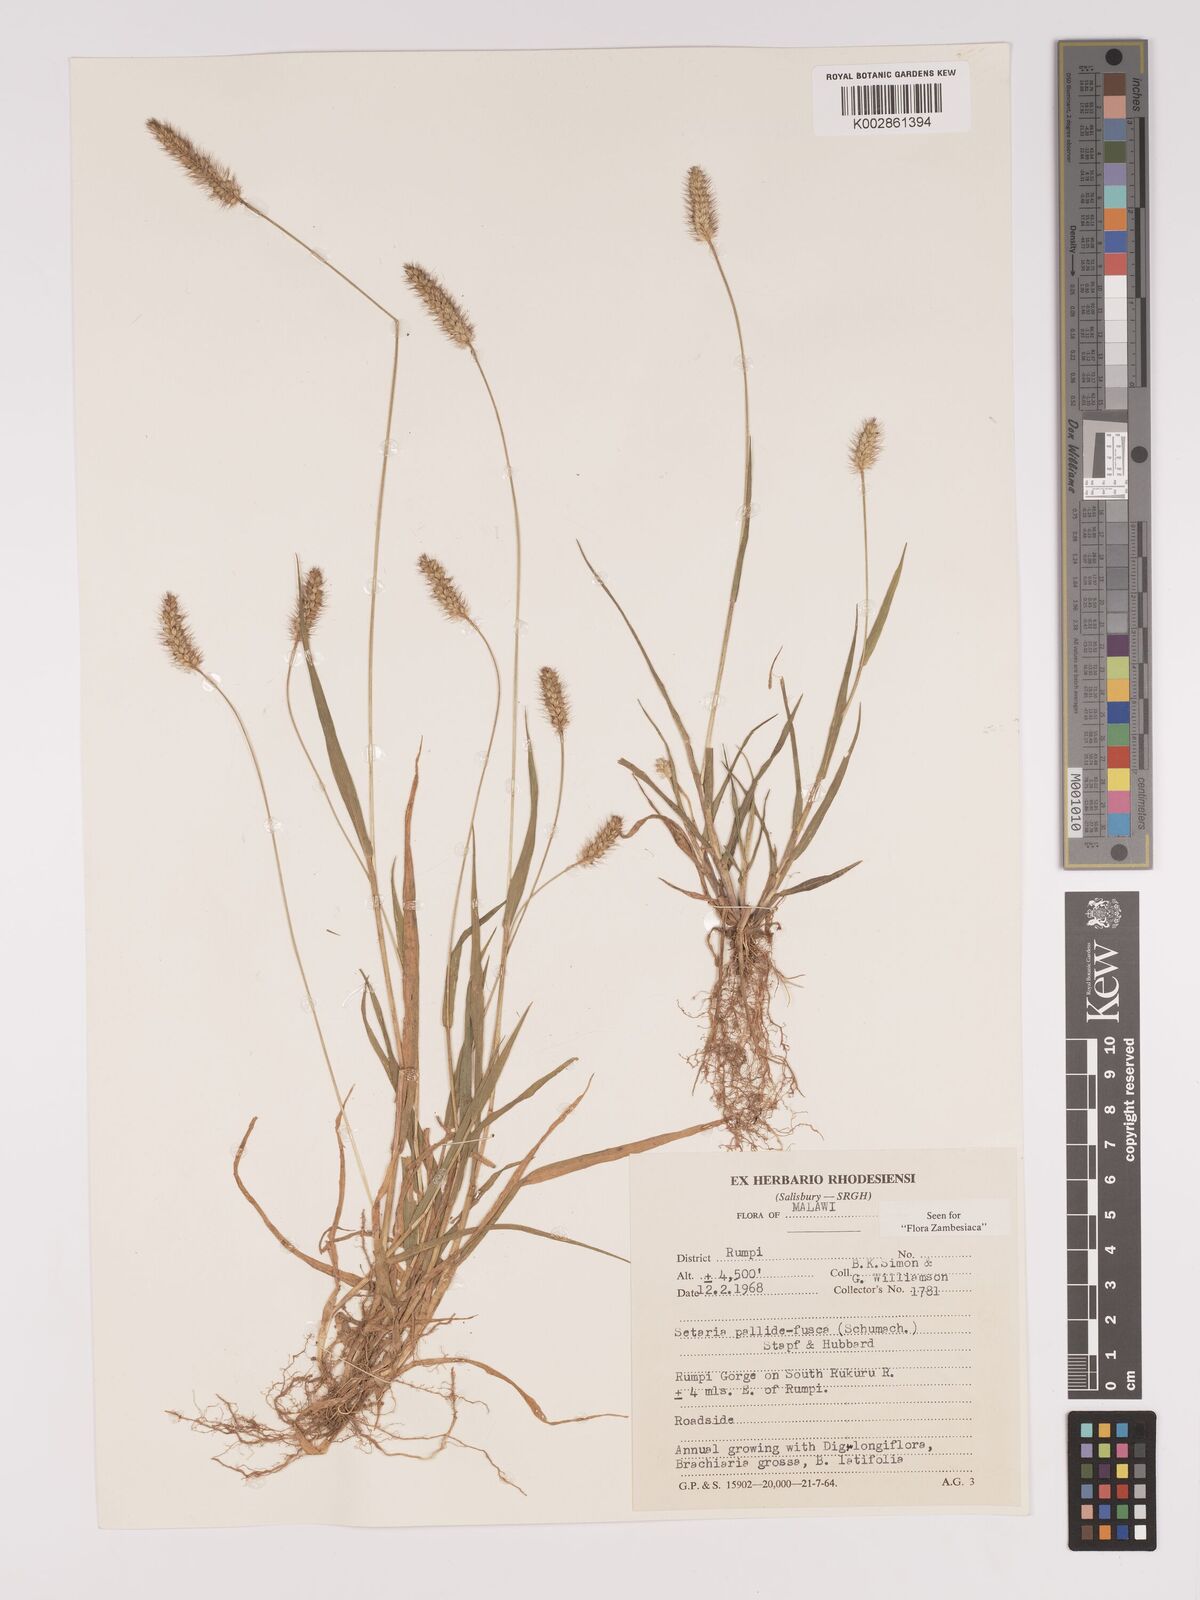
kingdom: Plantae
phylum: Tracheophyta
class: Liliopsida
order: Poales
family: Poaceae
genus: Setaria
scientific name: Setaria pumila
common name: Yellow bristle-grass
